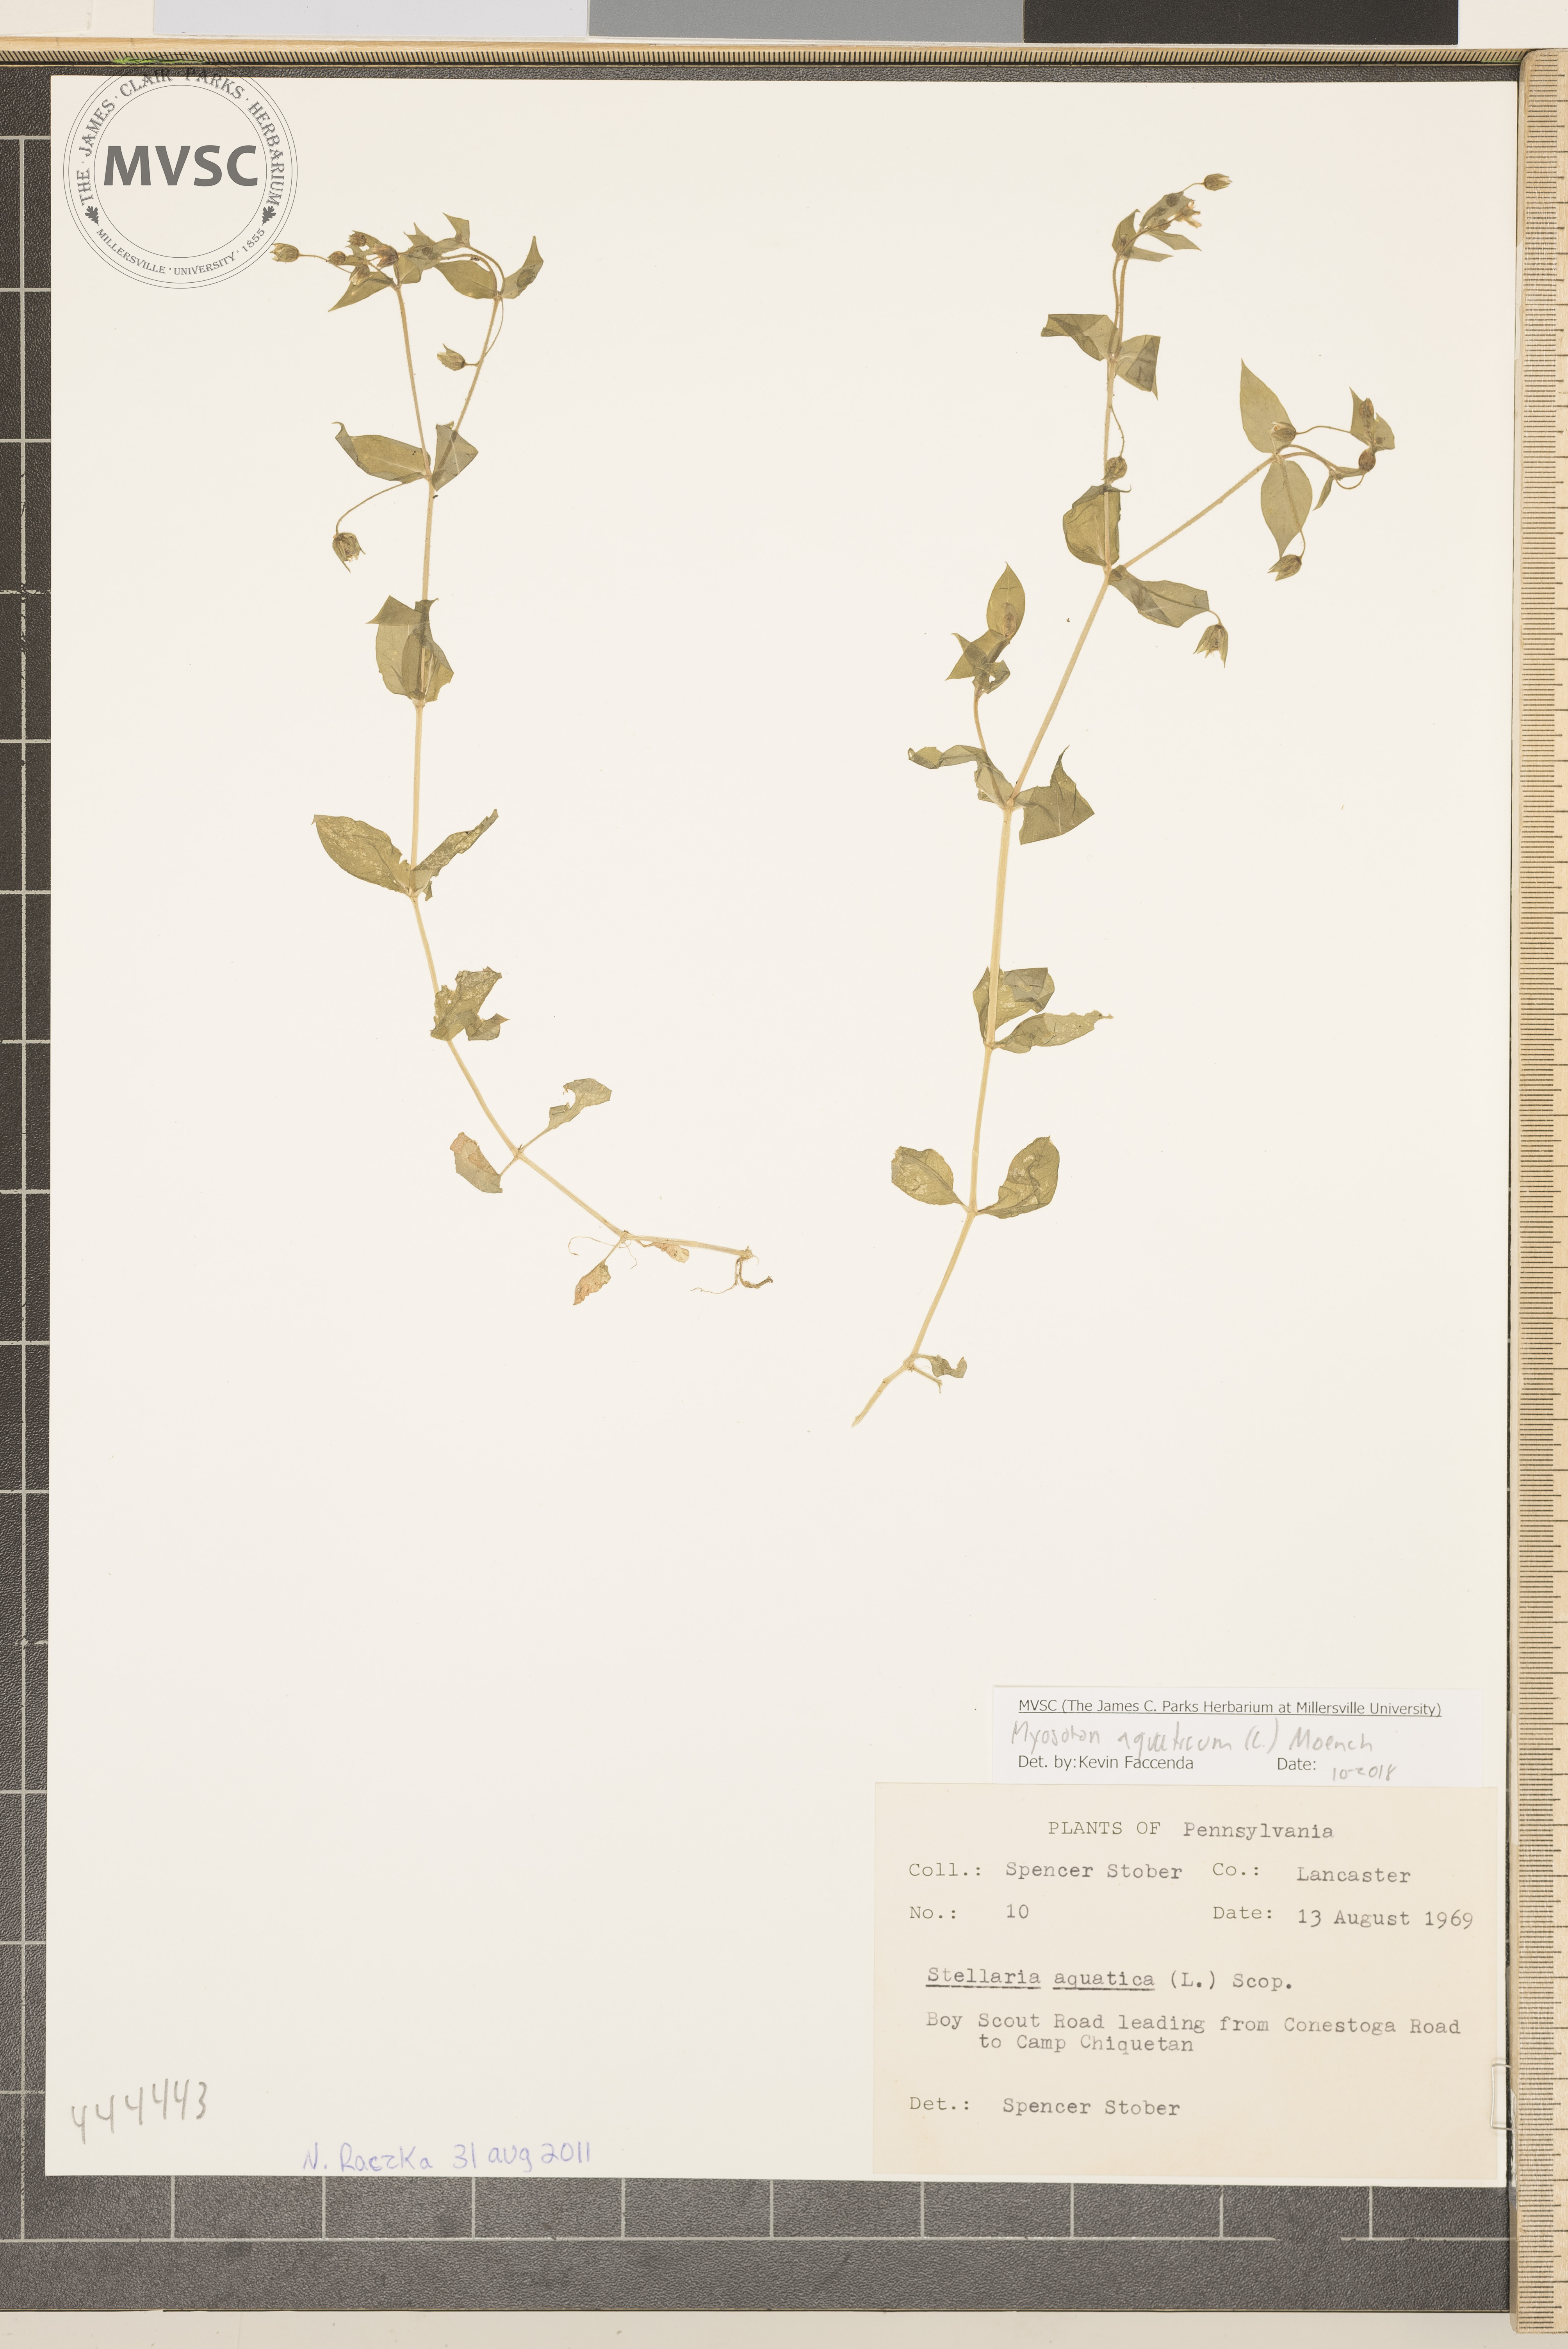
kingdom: Plantae
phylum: Tracheophyta
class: Magnoliopsida
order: Caryophyllales
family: Caryophyllaceae
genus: Stellaria
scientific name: Stellaria aquatica
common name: Giant chickweed
